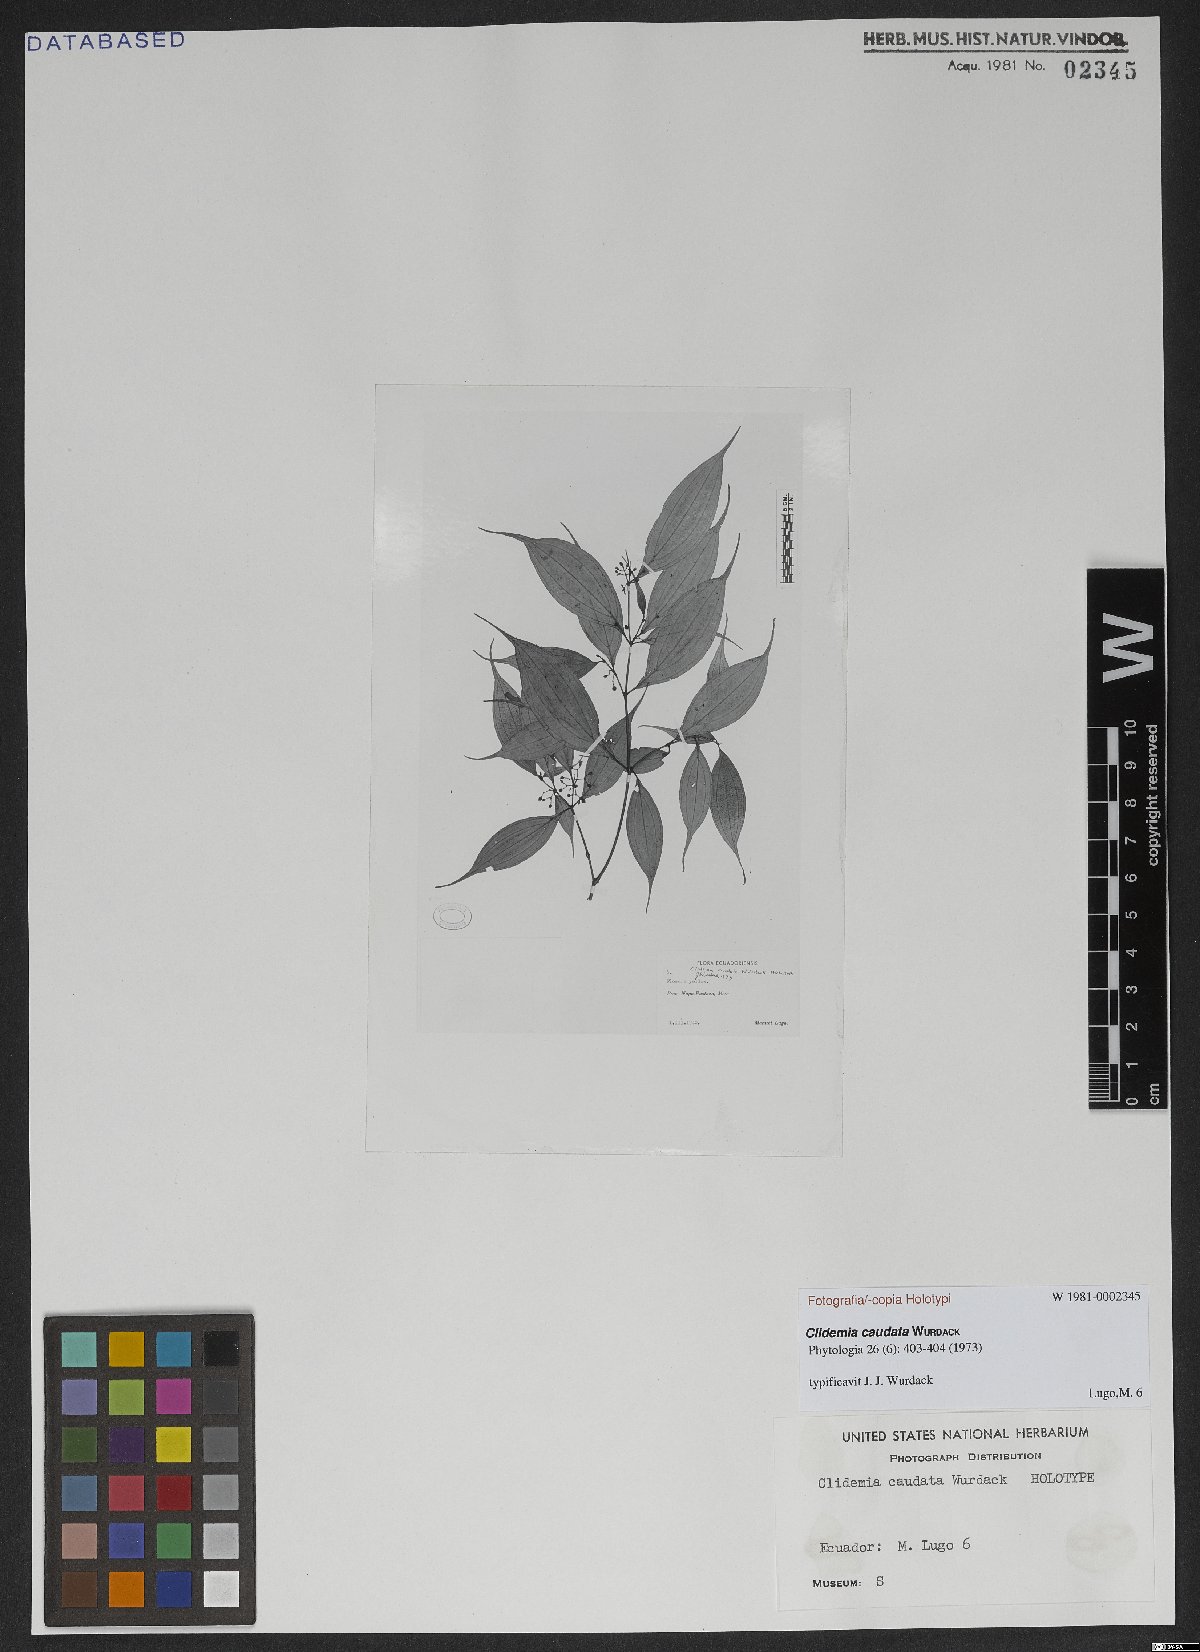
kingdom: Plantae
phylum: Tracheophyta
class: Magnoliopsida
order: Myrtales
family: Melastomataceae
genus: Miconia
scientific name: Miconia caudatifolia
